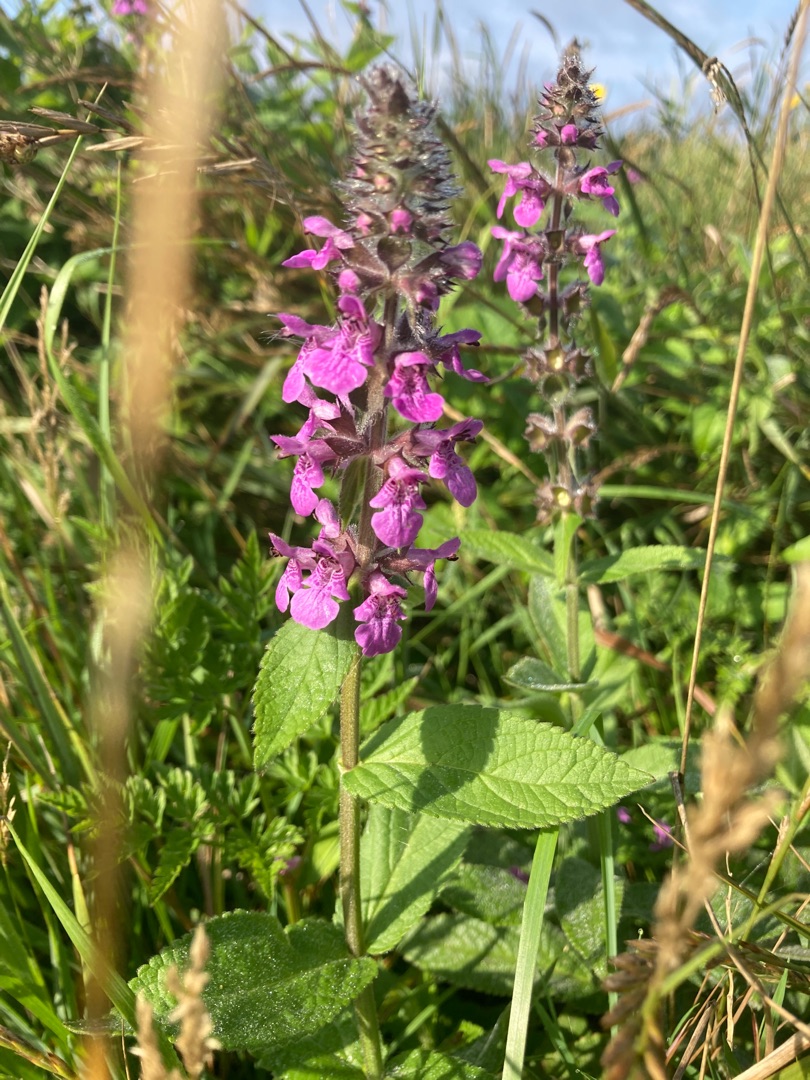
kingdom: Plantae
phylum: Tracheophyta
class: Magnoliopsida
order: Lamiales
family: Lamiaceae
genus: Stachys
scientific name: Stachys palustris
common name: Kær-galtetand
